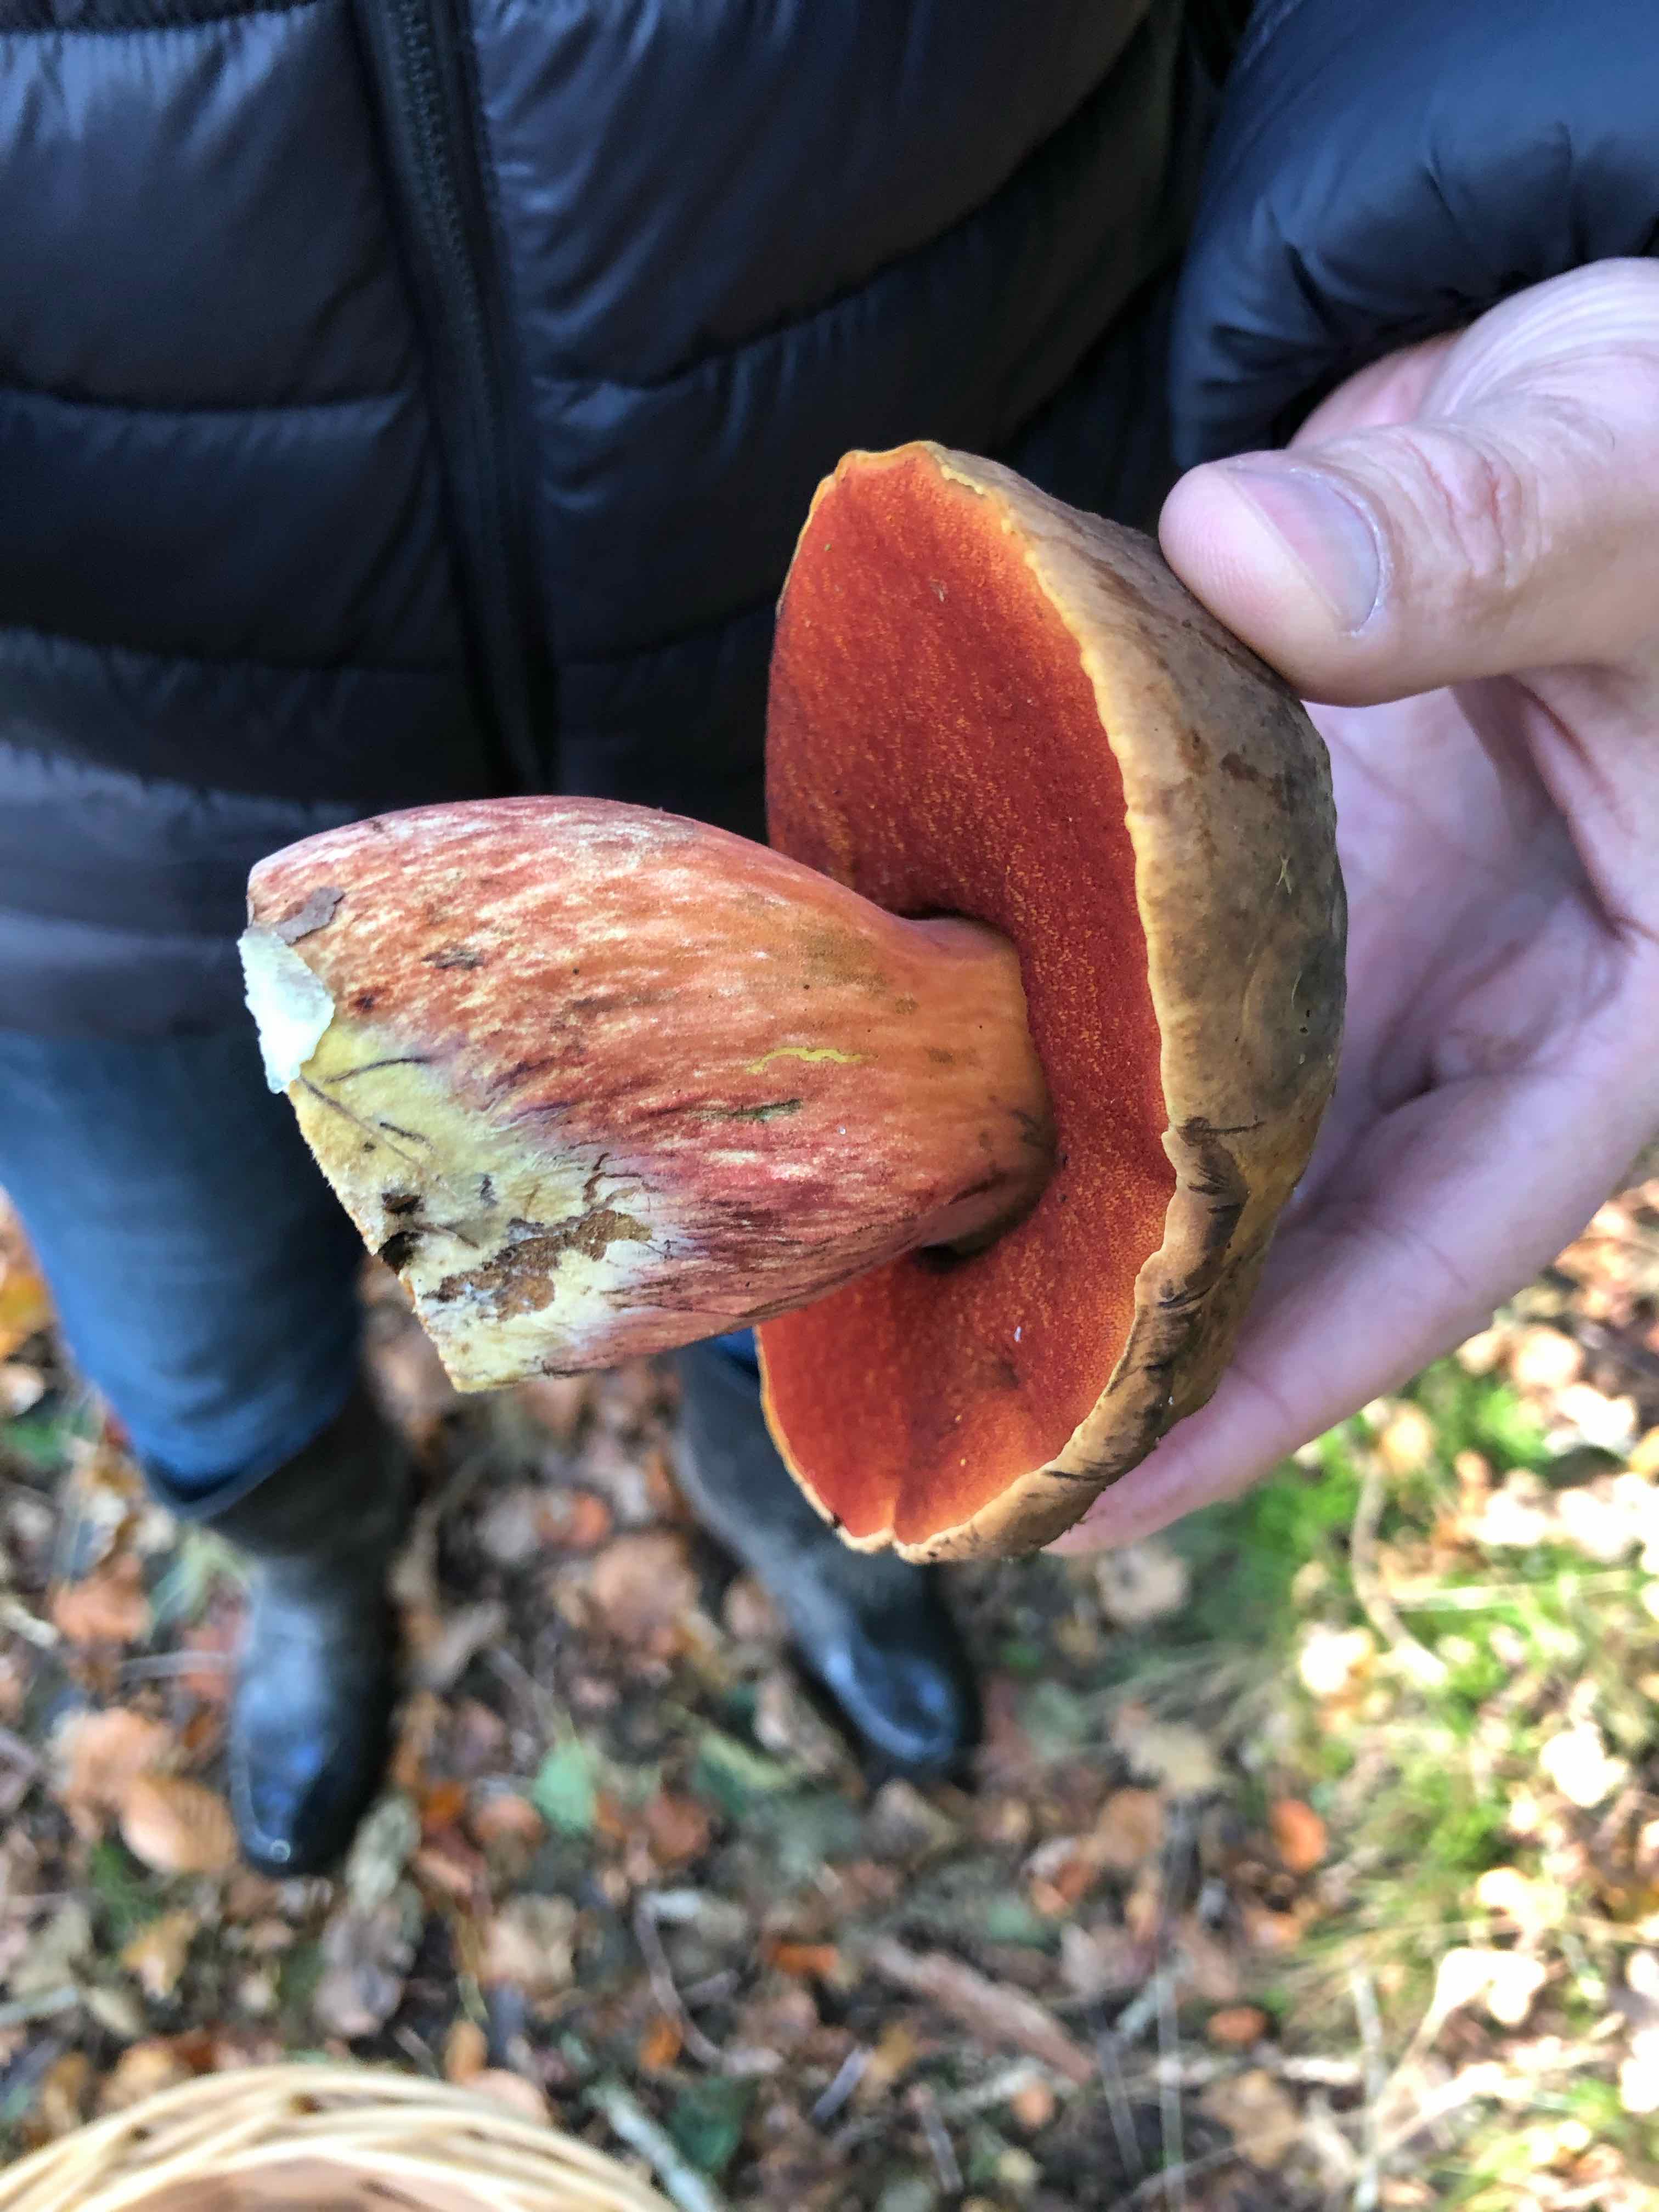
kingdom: Fungi
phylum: Basidiomycota
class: Agaricomycetes
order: Boletales
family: Boletaceae
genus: Neoboletus
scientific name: Neoboletus erythropus
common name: punktstokket indigorørhat
